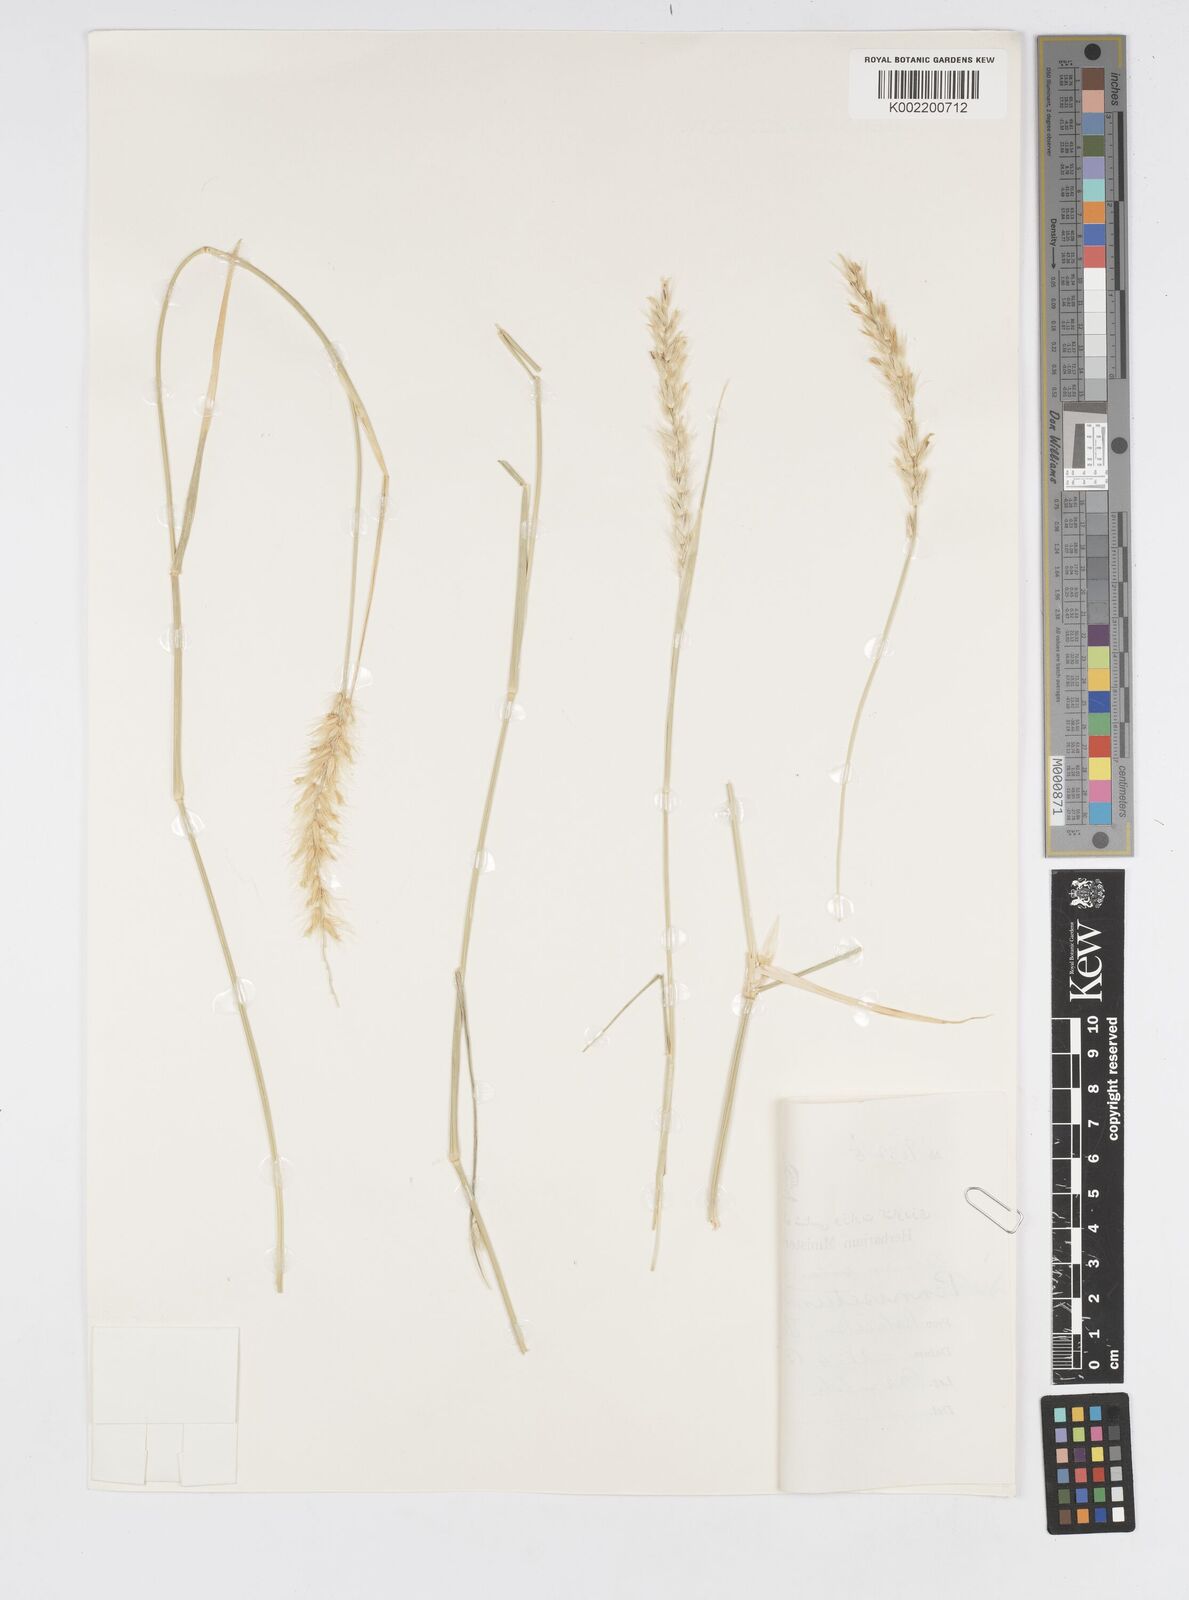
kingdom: Plantae
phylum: Tracheophyta
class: Liliopsida
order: Poales
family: Poaceae
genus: Cenchrus
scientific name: Cenchrus divisus
